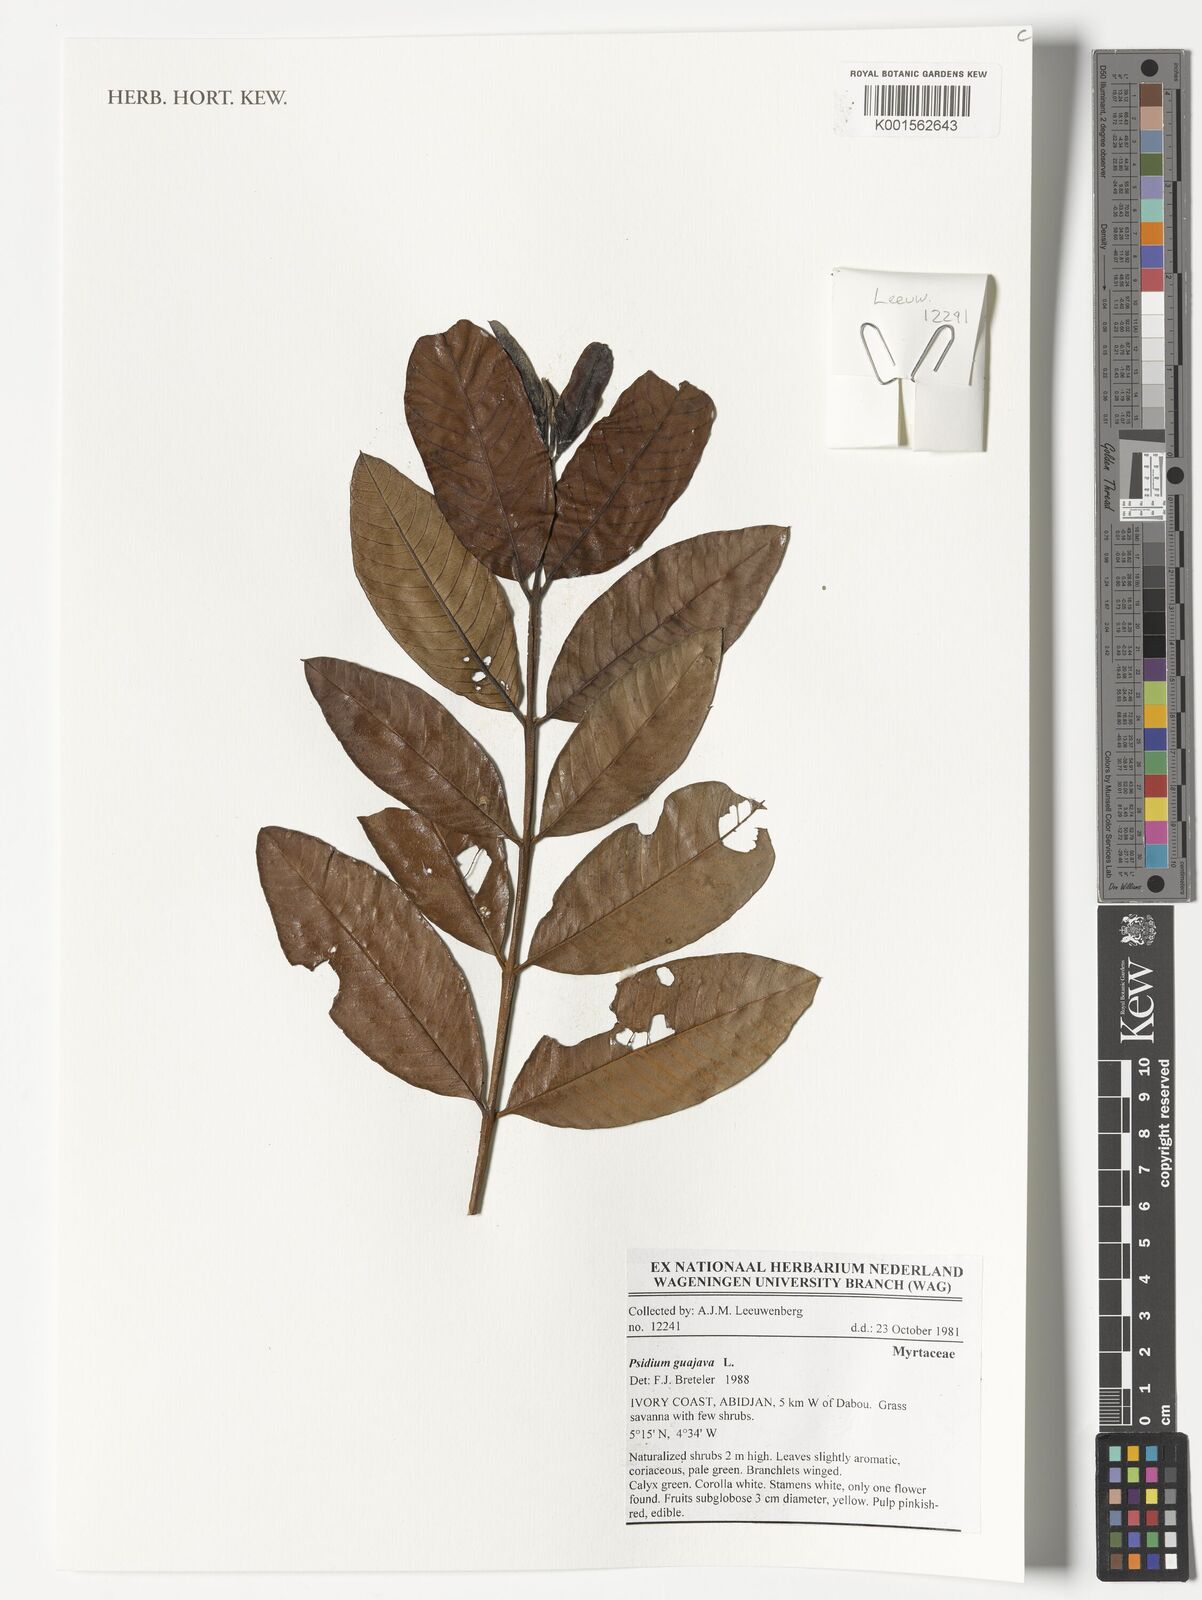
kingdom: Plantae
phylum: Tracheophyta
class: Magnoliopsida
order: Myrtales
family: Myrtaceae
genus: Psidium
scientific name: Psidium guajava
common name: Guava
